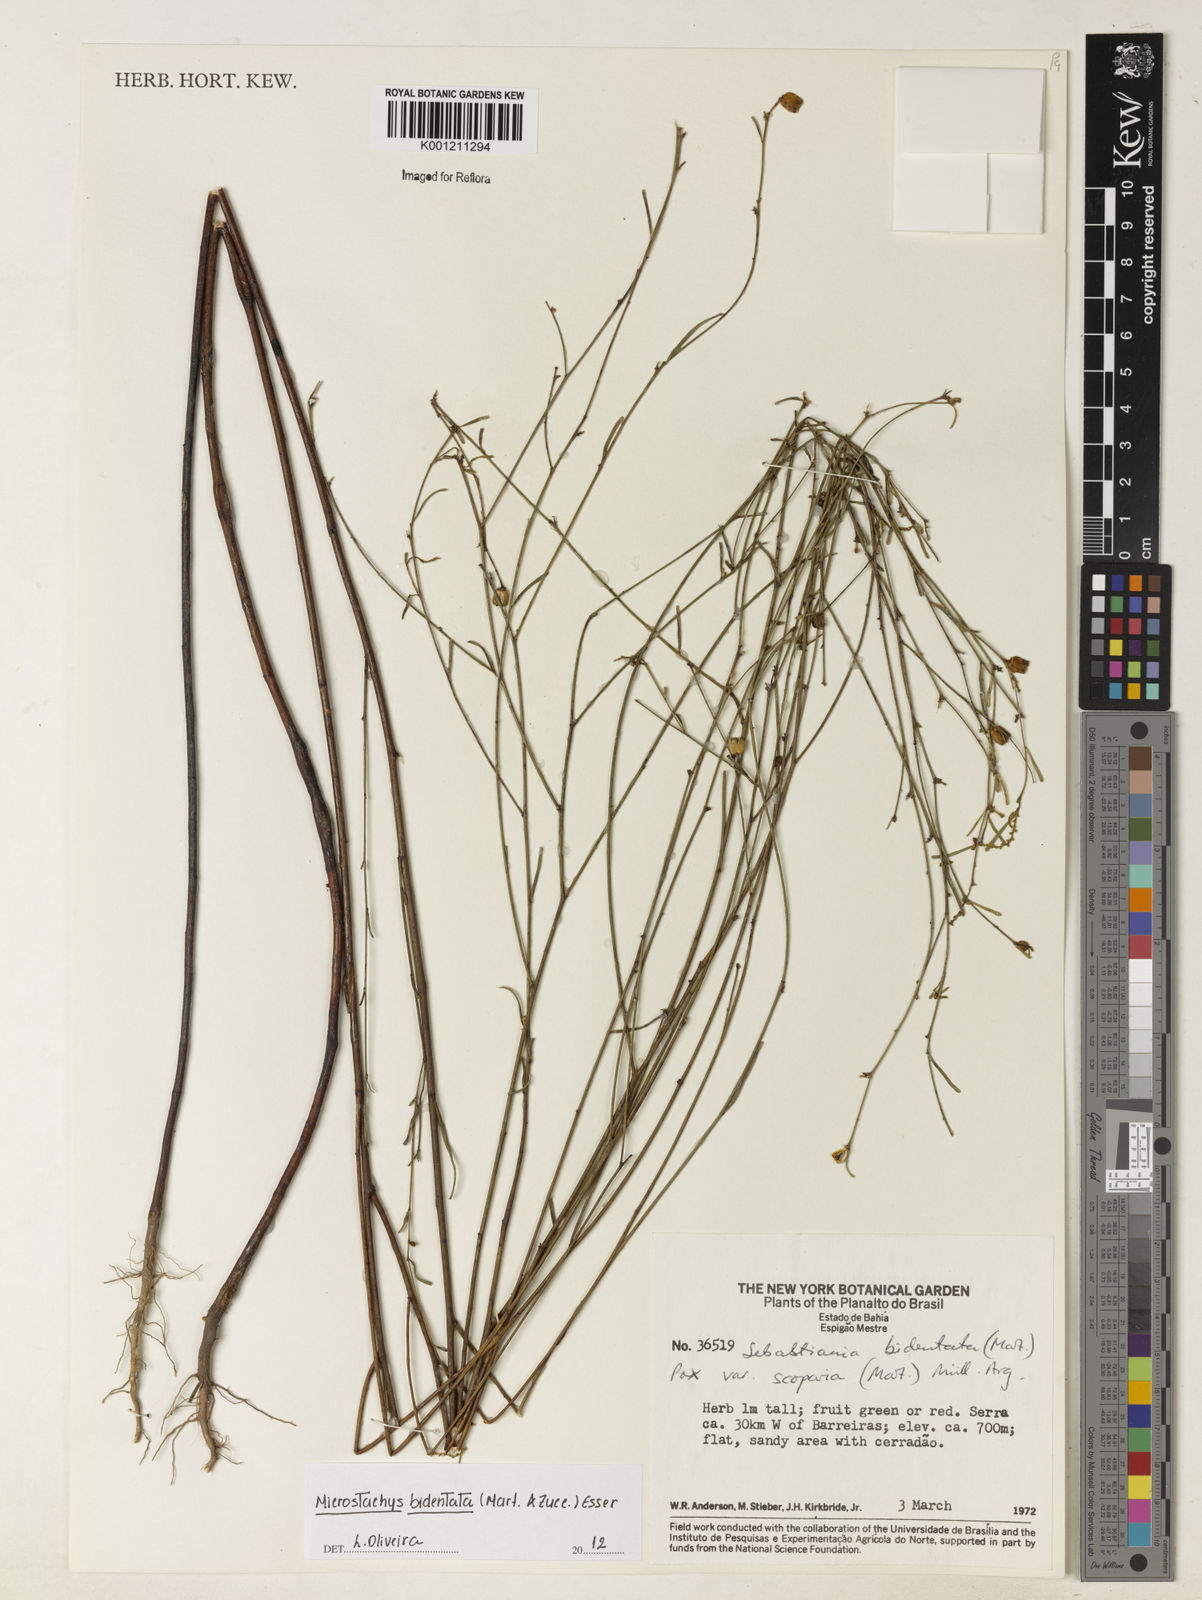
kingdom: Plantae
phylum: Tracheophyta
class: Magnoliopsida
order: Malpighiales
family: Euphorbiaceae
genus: Microstachys
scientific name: Microstachys bidentata
